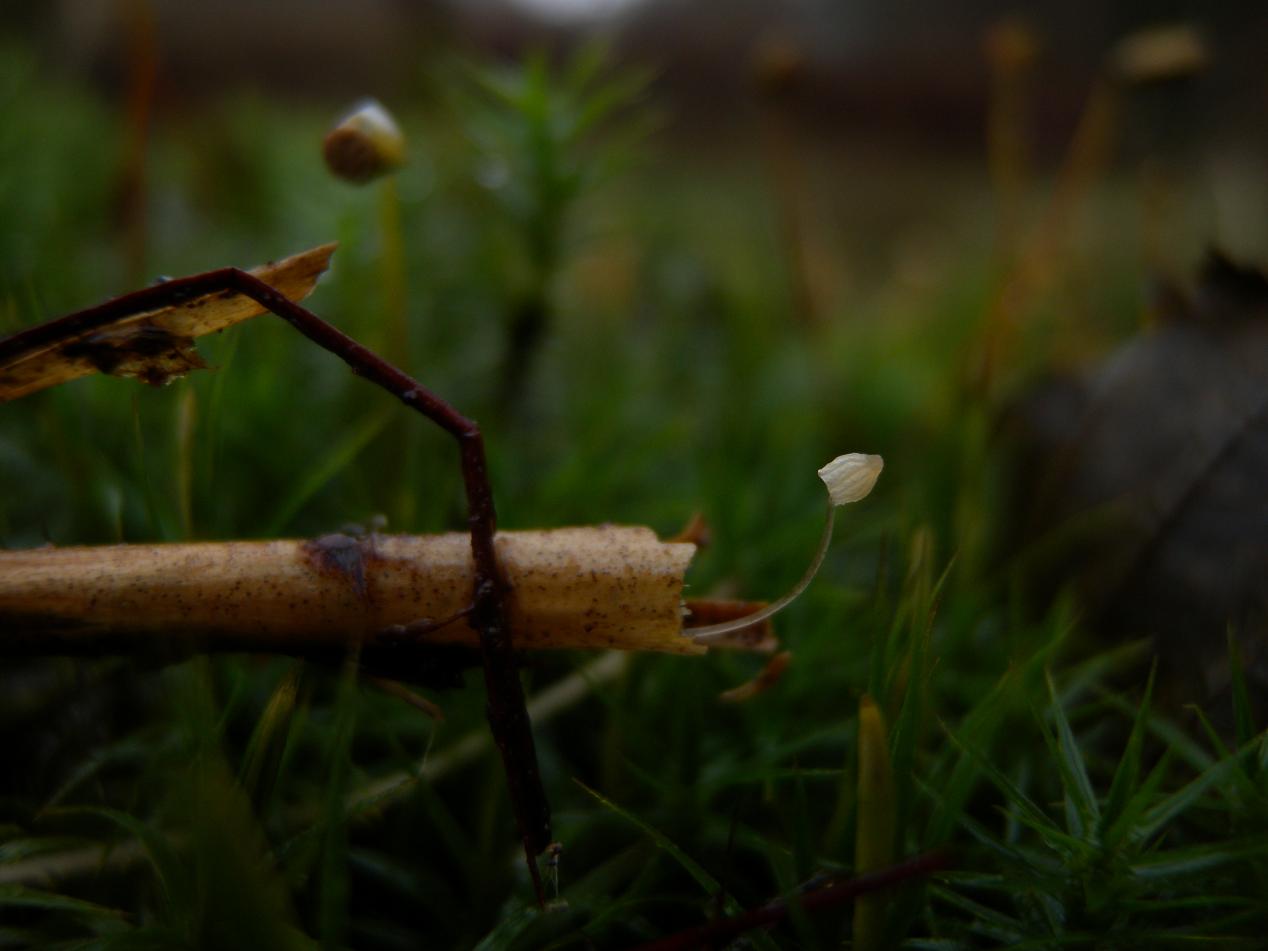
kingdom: Fungi
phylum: Basidiomycota
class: Agaricomycetes
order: Agaricales
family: Mycenaceae
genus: Mycena
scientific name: Mycena pterigena
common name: bregne-huesvamp
